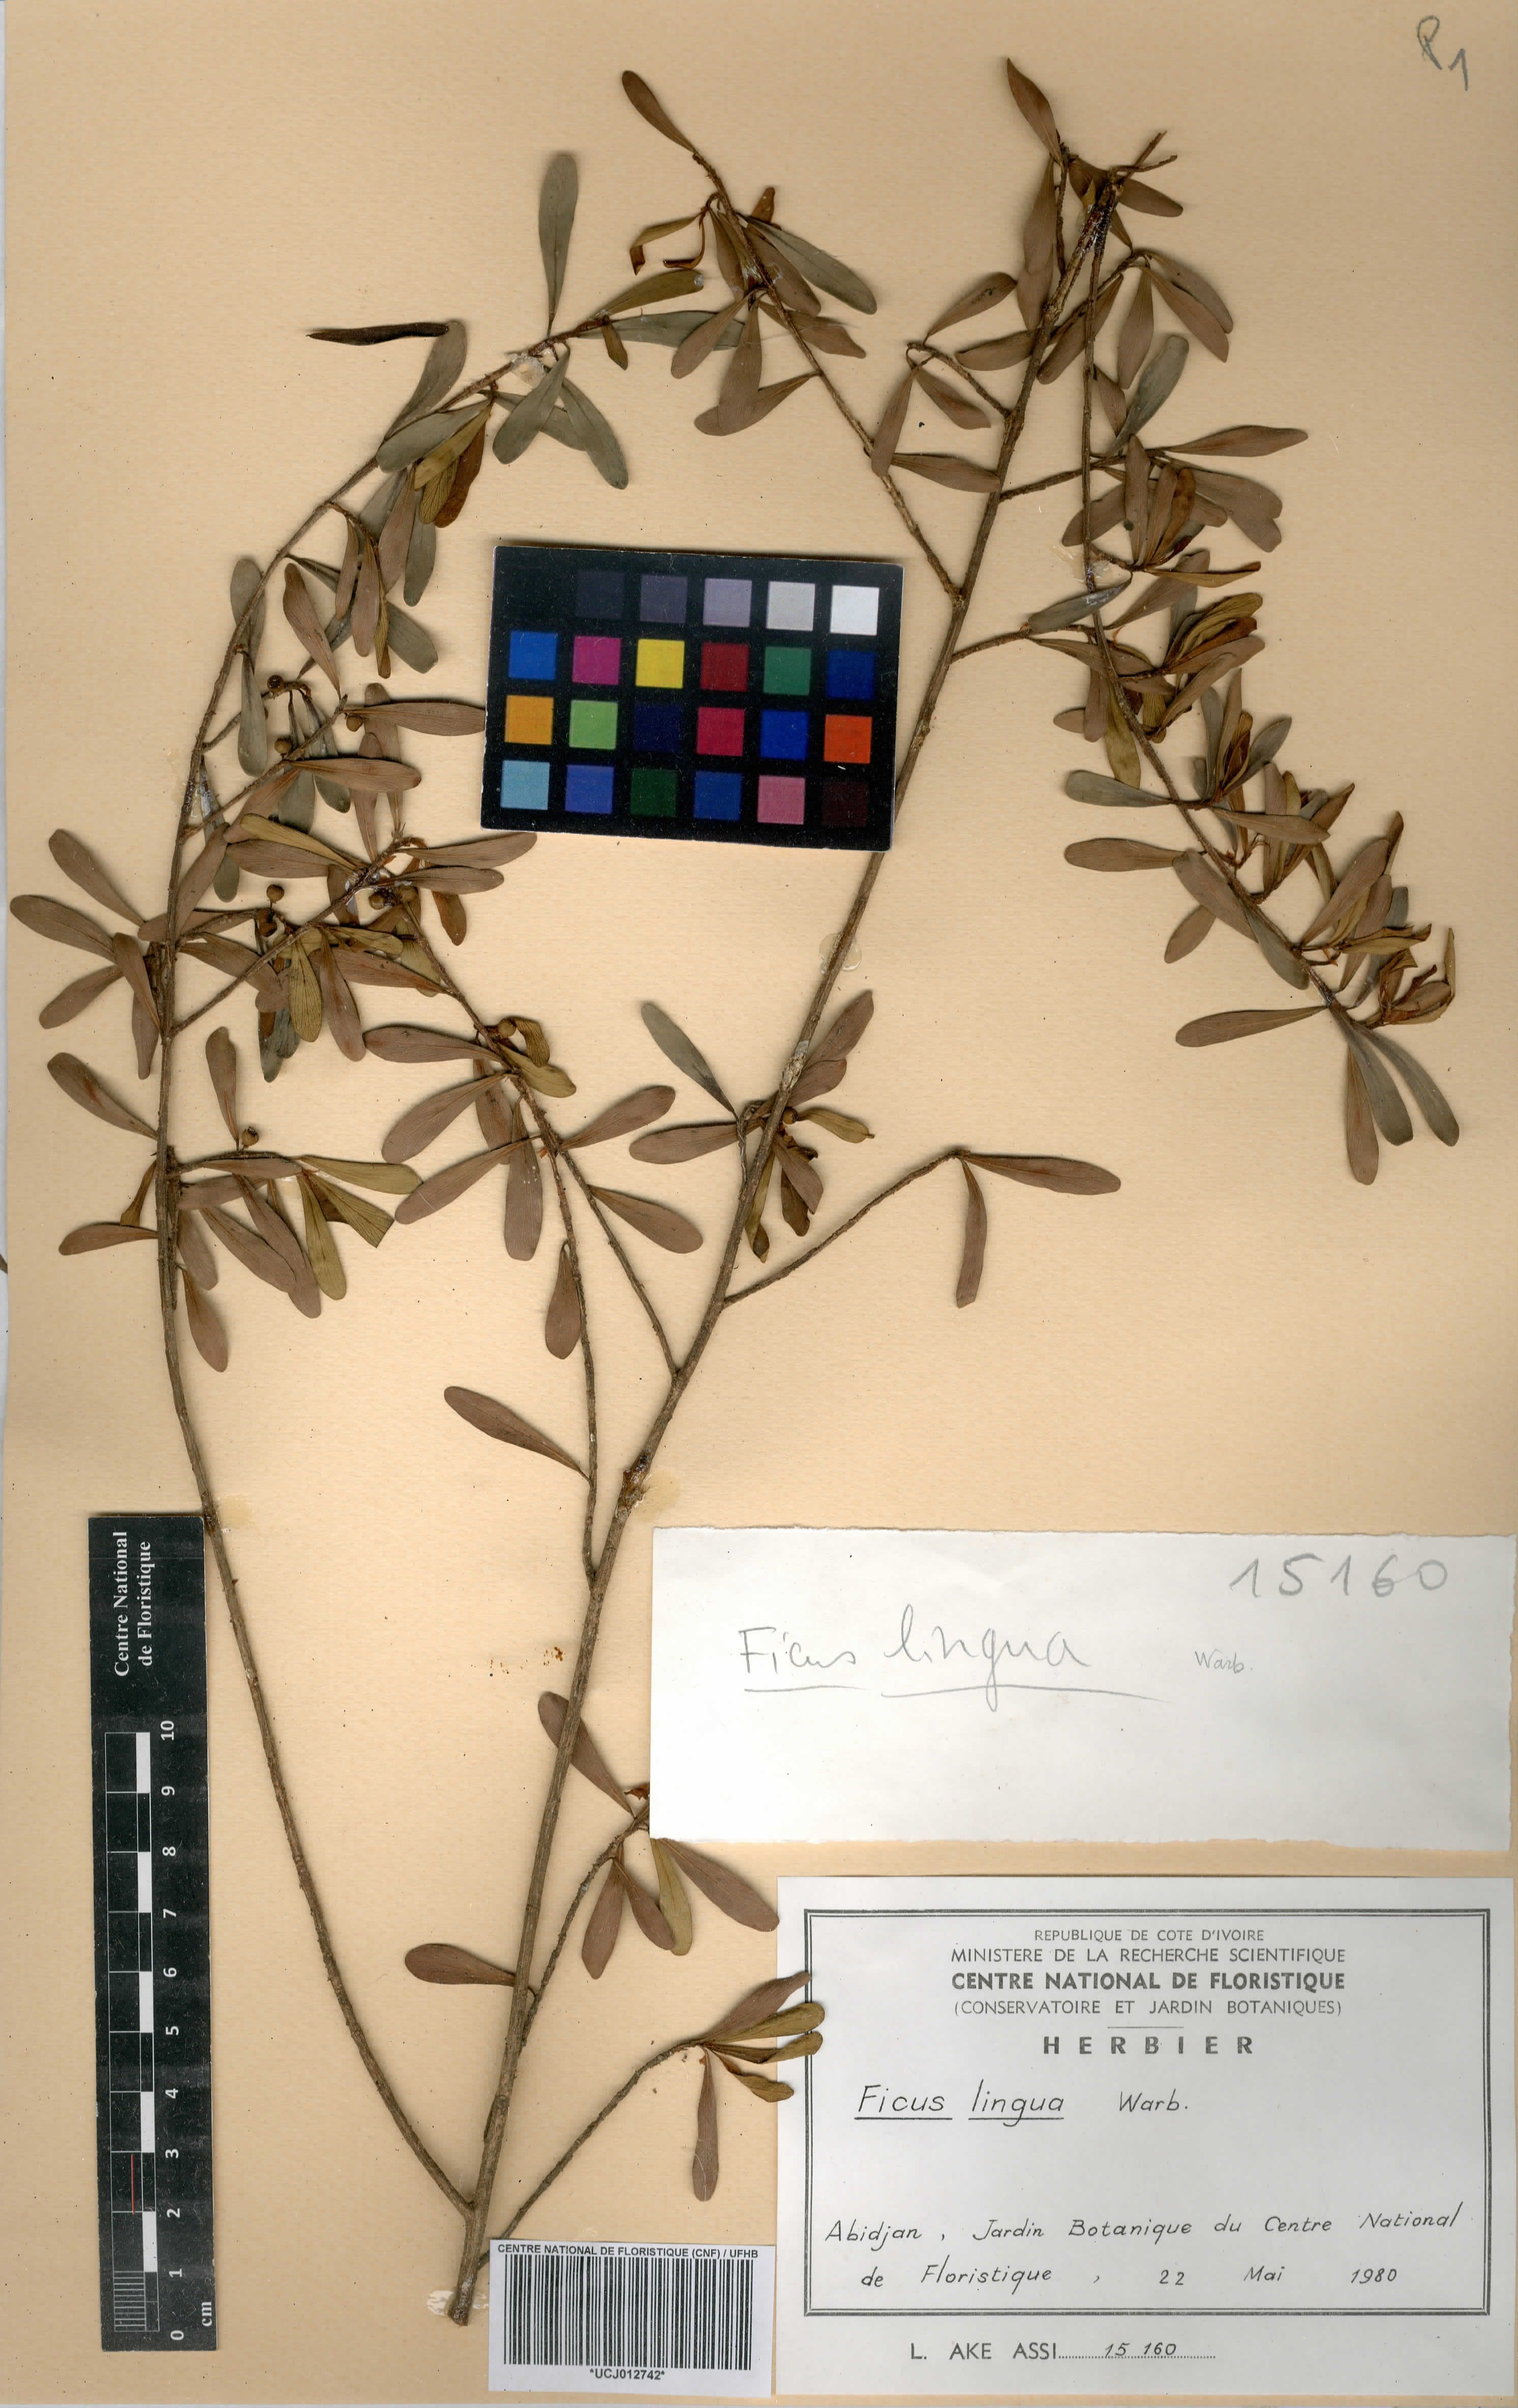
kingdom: Plantae
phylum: Tracheophyta
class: Magnoliopsida
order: Rosales
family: Moraceae
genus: Ficus
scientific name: Ficus lingua
